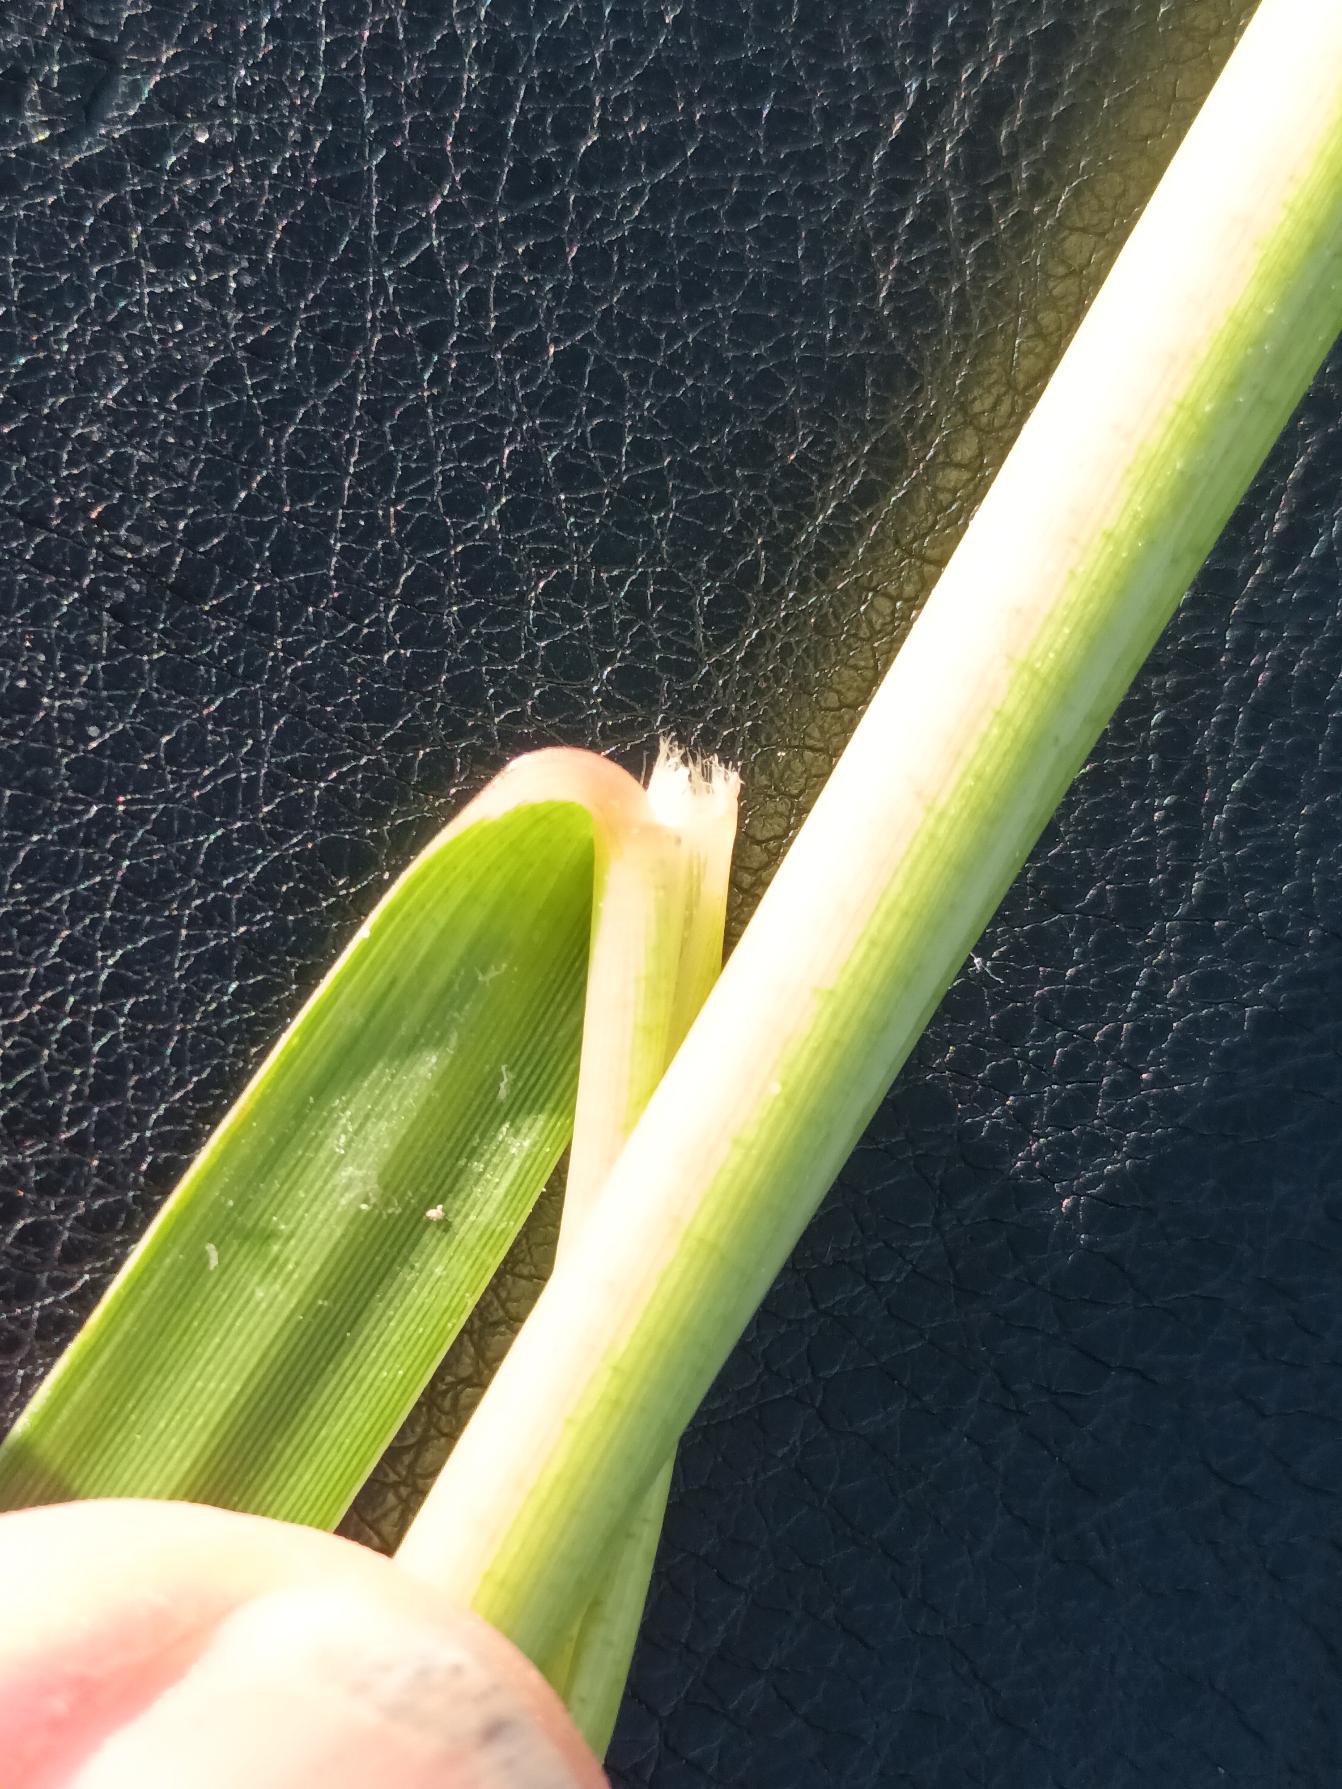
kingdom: Plantae
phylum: Tracheophyta
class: Liliopsida
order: Poales
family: Poaceae
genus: Sporobolus
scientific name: Sporobolus anglicus
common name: Engelsk vadegræs
